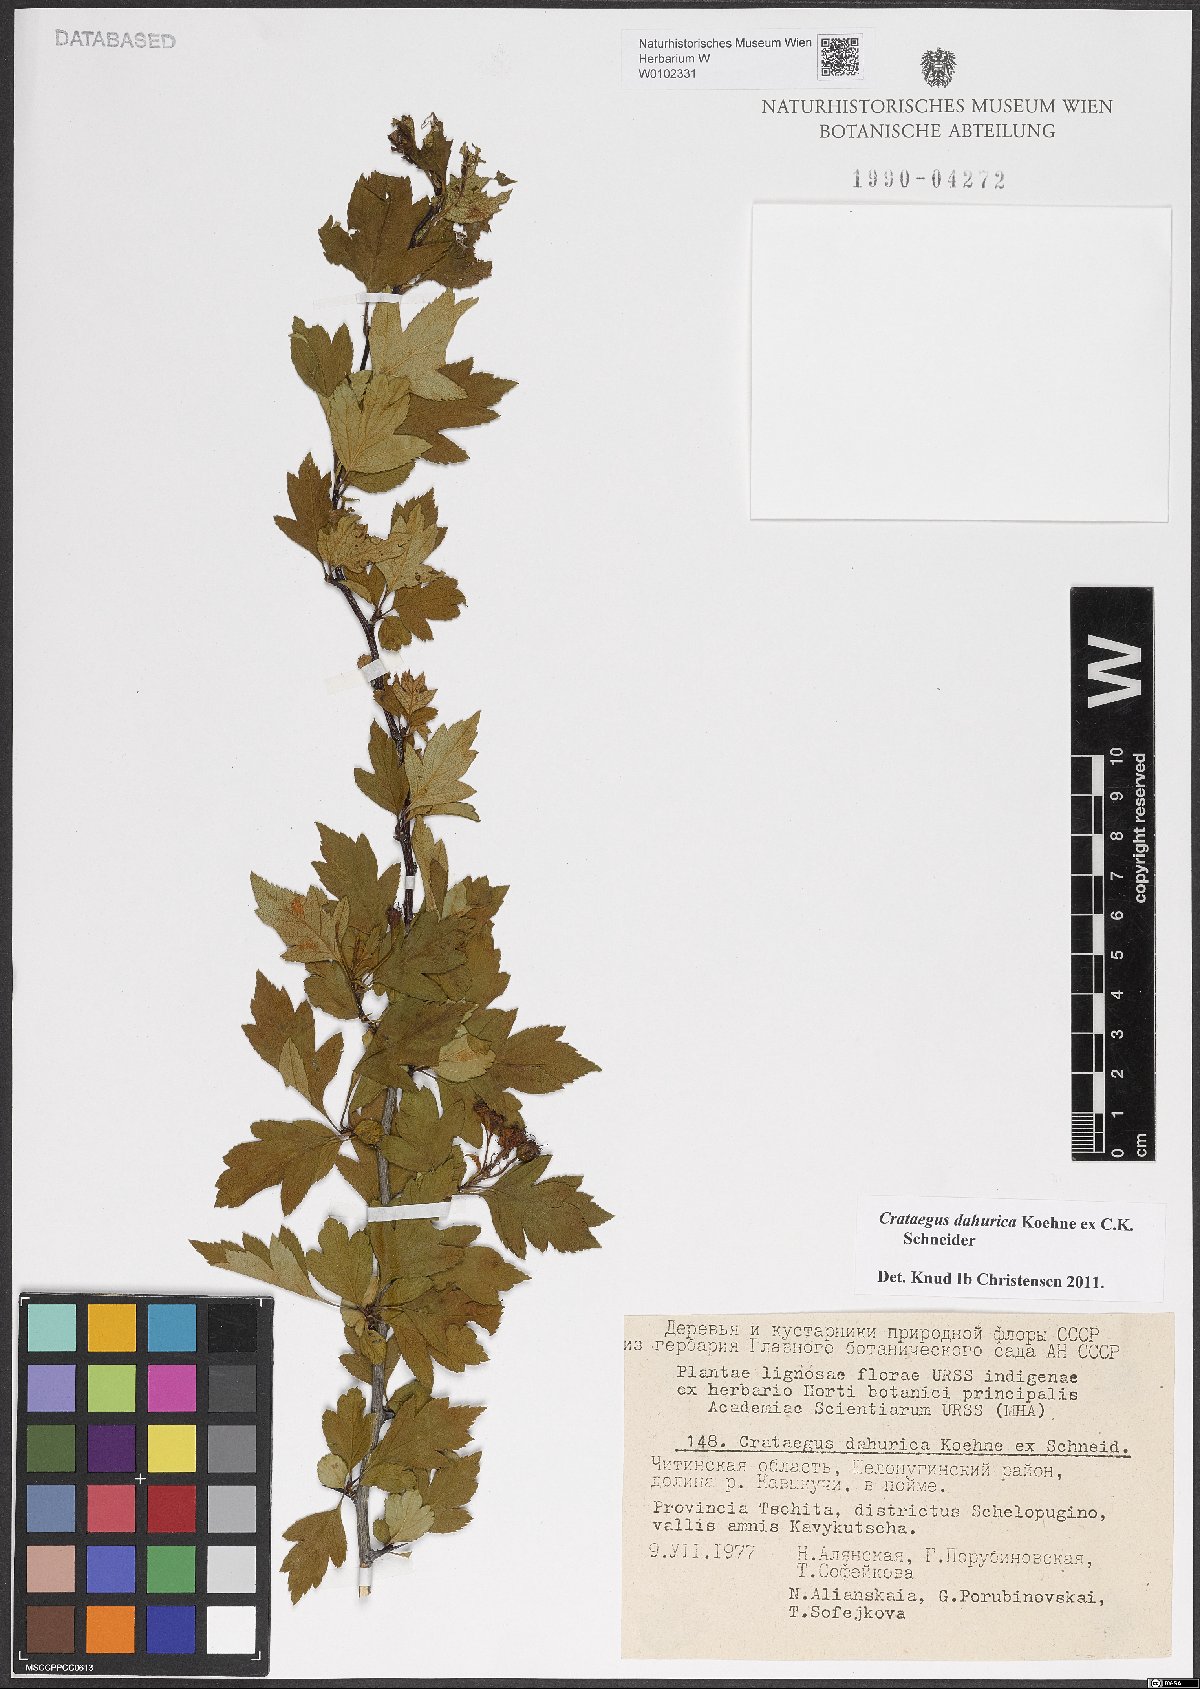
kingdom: Plantae
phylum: Tracheophyta
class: Magnoliopsida
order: Rosales
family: Rosaceae
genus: Crataegus
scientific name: Crataegus dahurica
